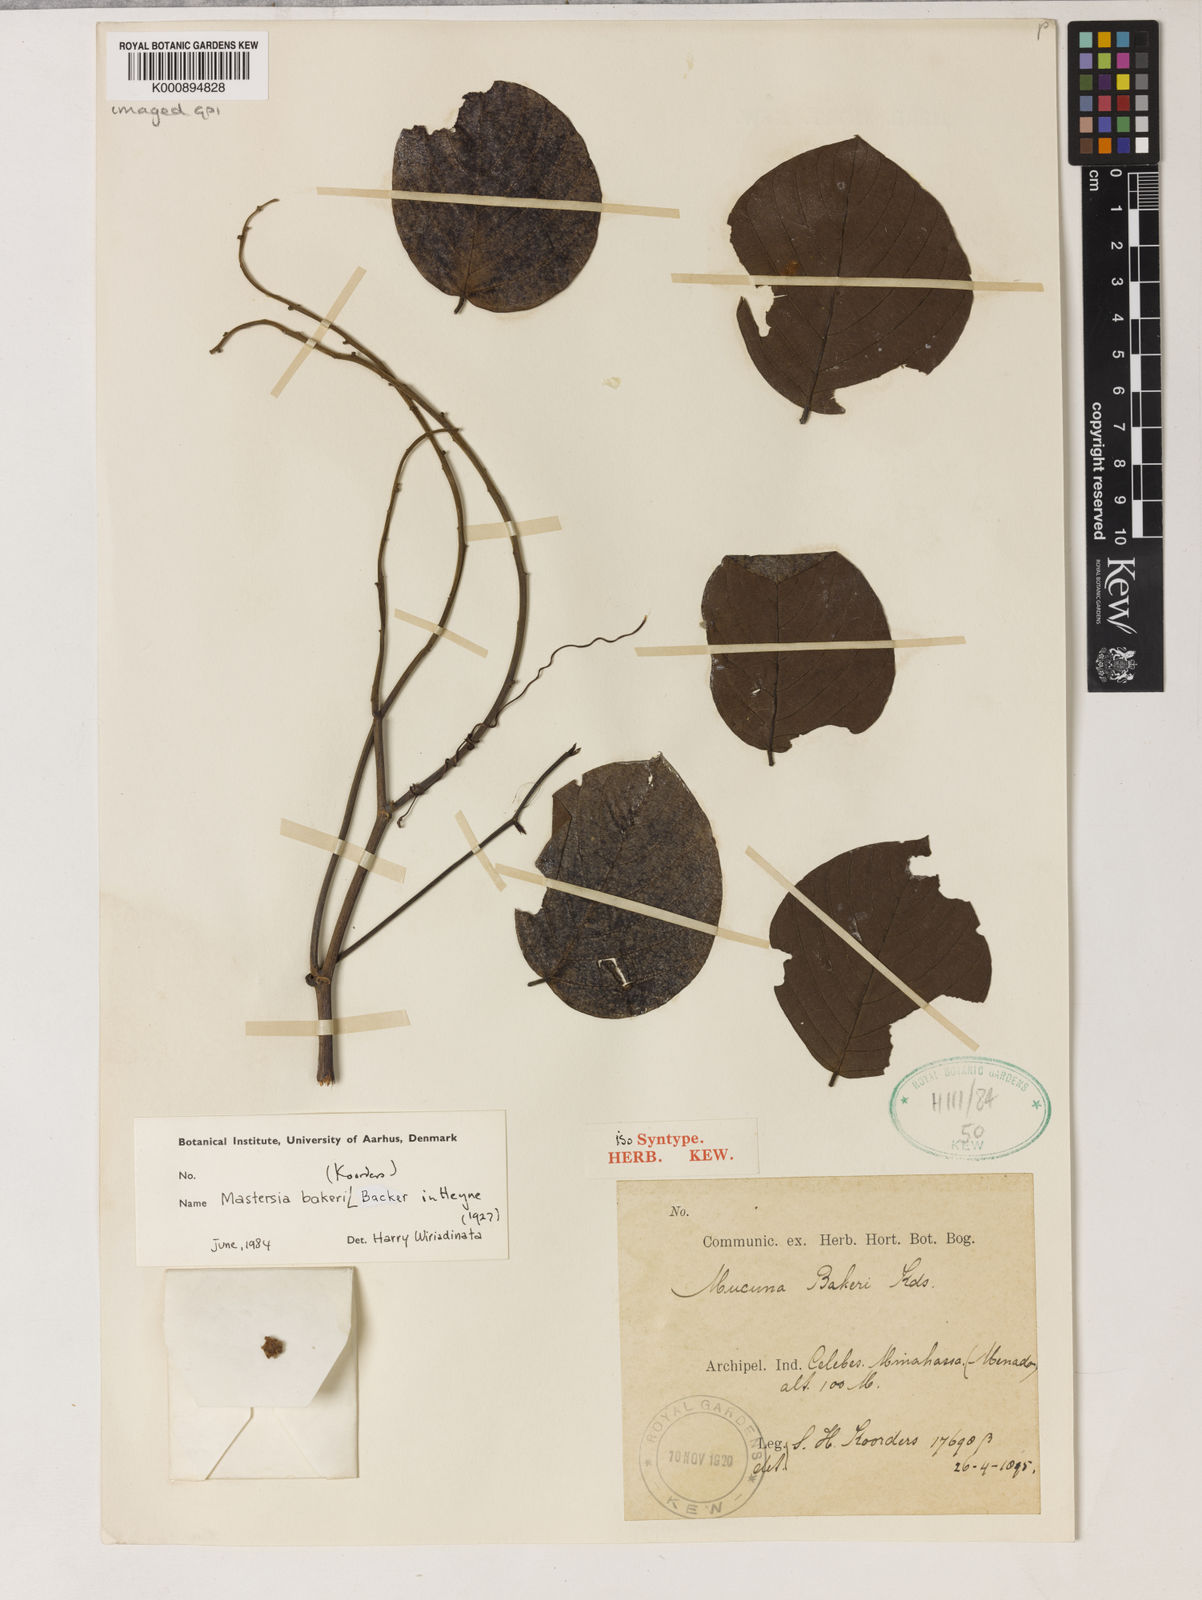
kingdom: Plantae
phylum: Tracheophyta
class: Magnoliopsida
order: Fabales
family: Fabaceae
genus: Mastersia
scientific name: Mastersia bakeri
